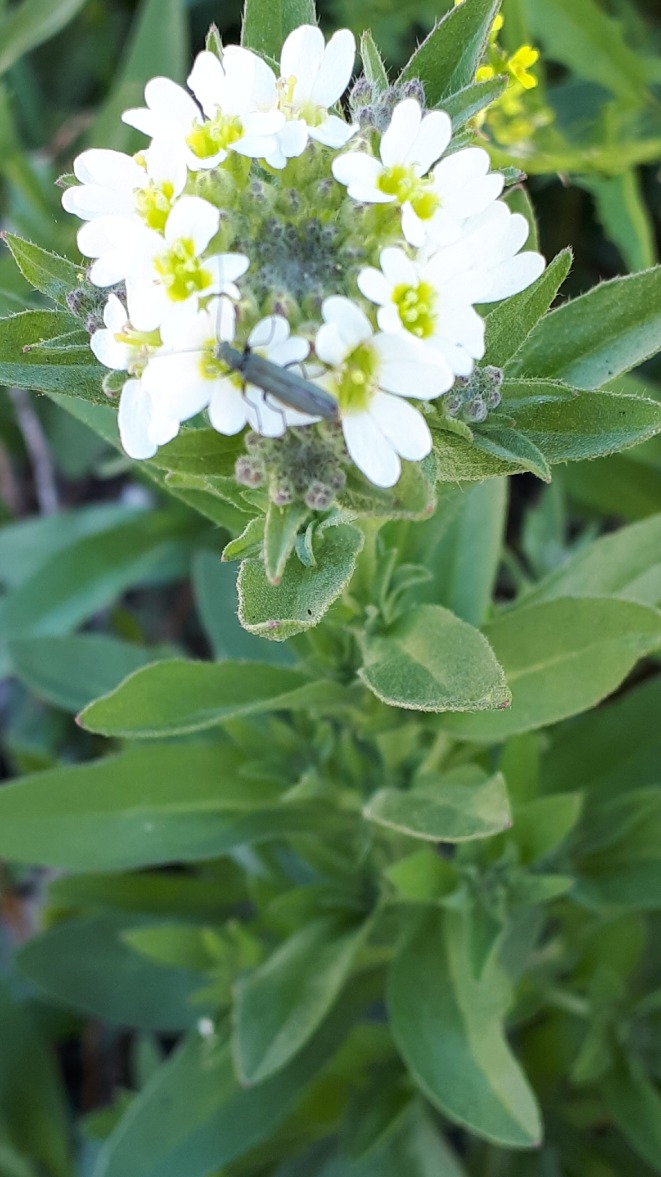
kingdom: Plantae
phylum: Tracheophyta
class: Magnoliopsida
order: Brassicales
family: Brassicaceae
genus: Berteroa
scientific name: Berteroa incana
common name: Kløvplade
